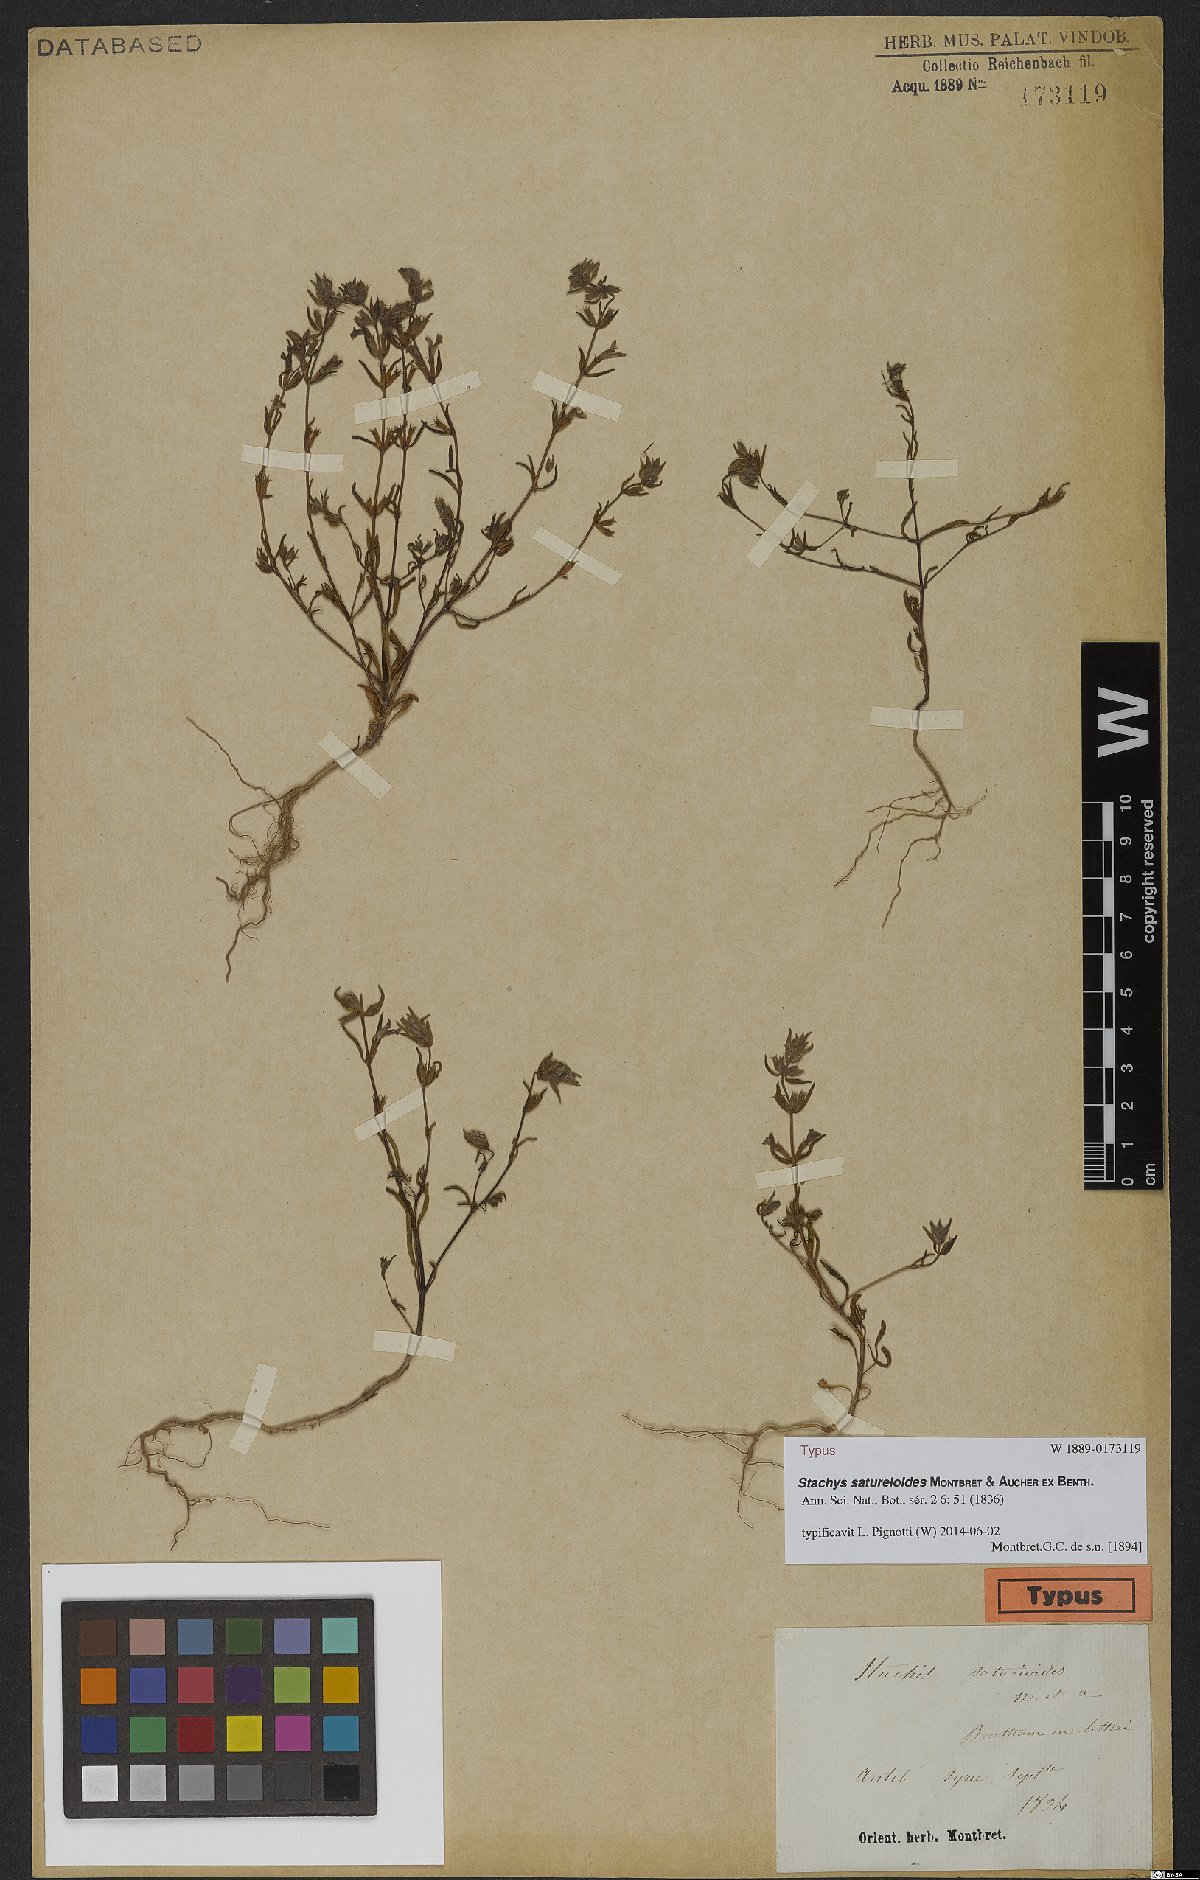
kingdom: Plantae
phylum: Tracheophyta
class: Magnoliopsida
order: Lamiales
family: Lamiaceae
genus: Stachys
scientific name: Stachys saturejoides
